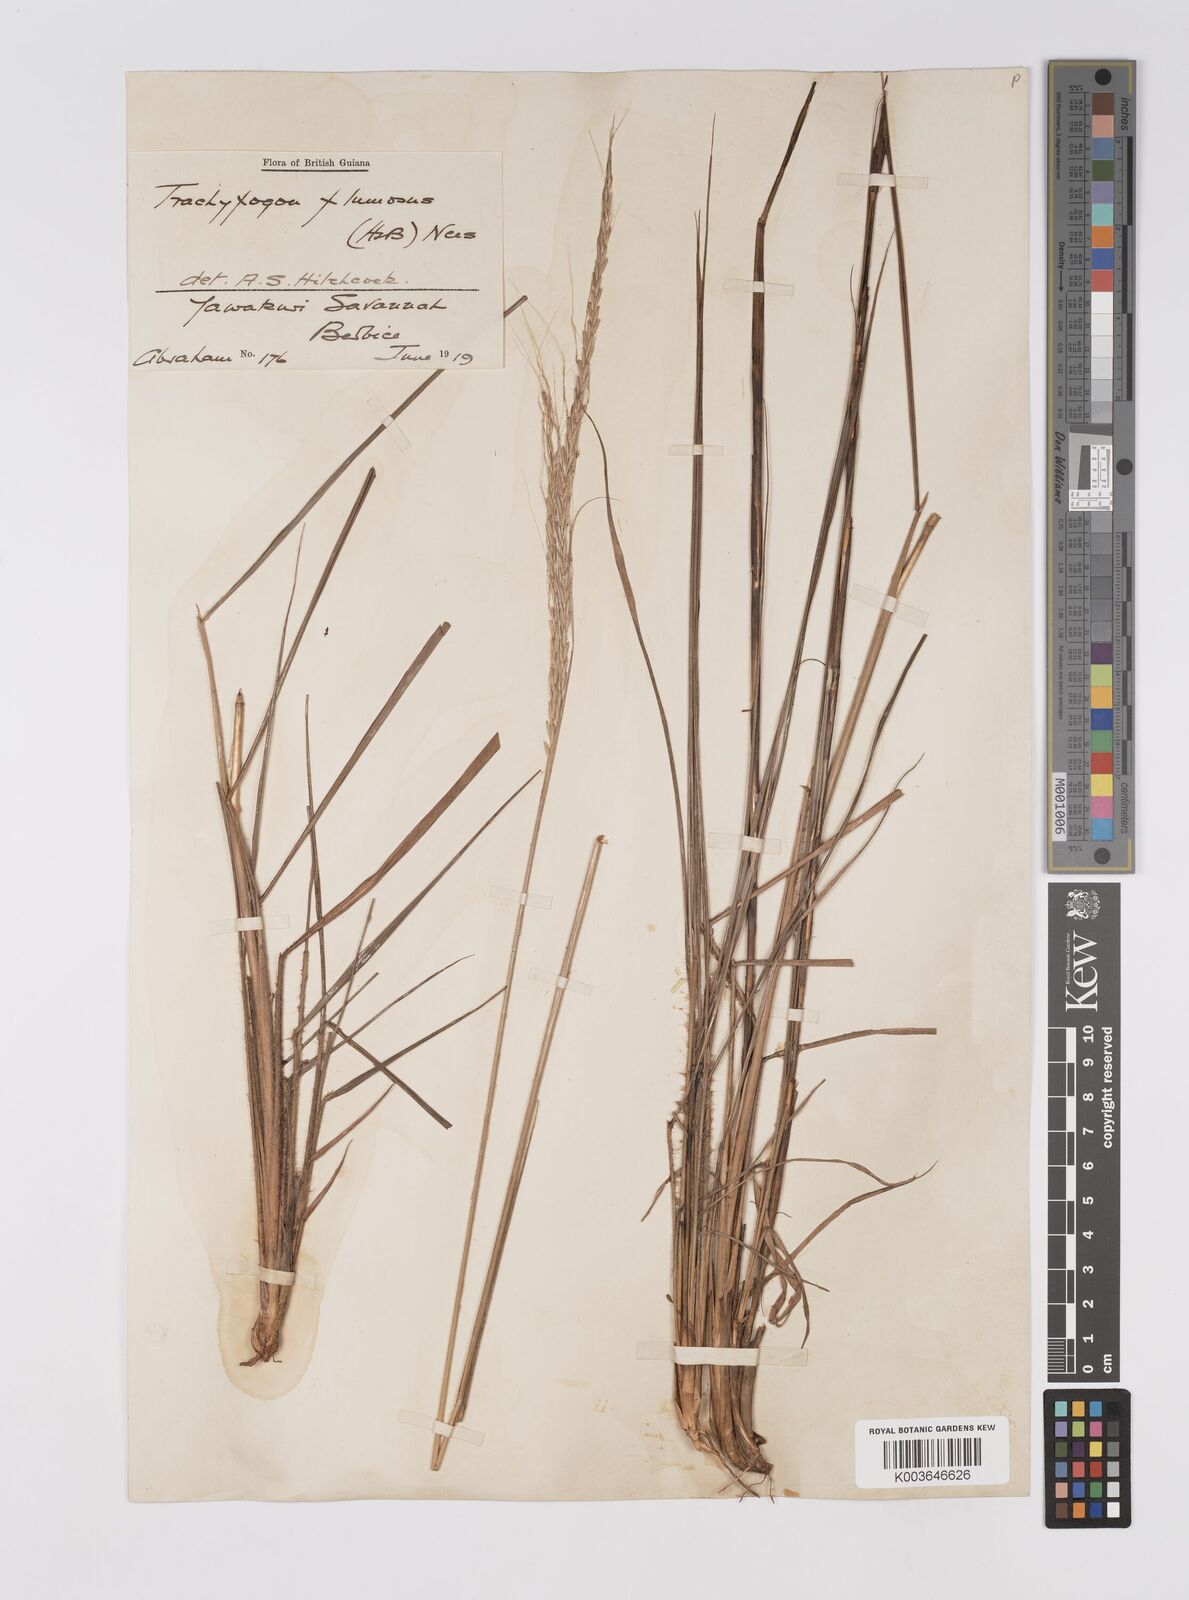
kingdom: Plantae
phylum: Tracheophyta
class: Liliopsida
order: Poales
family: Poaceae
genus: Trachypogon
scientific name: Trachypogon spicatus
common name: Crinkle-awn
